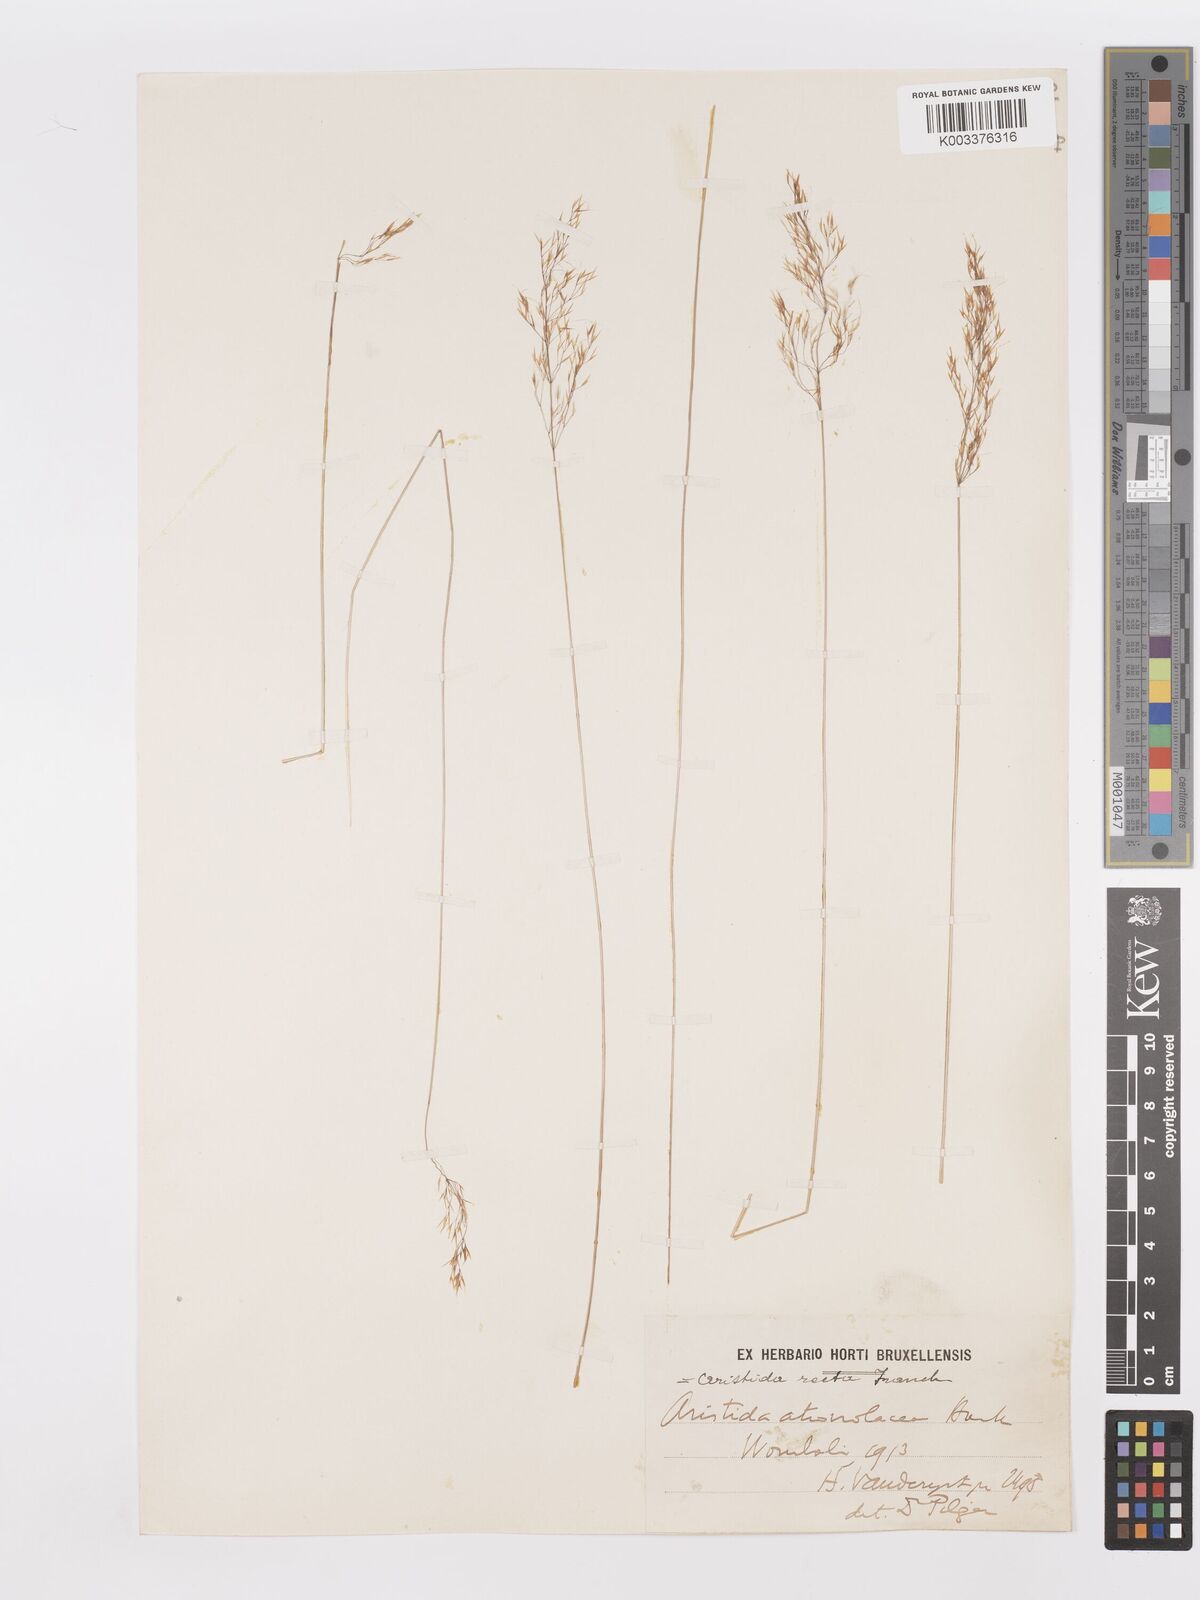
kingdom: Plantae
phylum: Tracheophyta
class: Liliopsida
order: Poales
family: Poaceae
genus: Aristida
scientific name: Aristida recta
